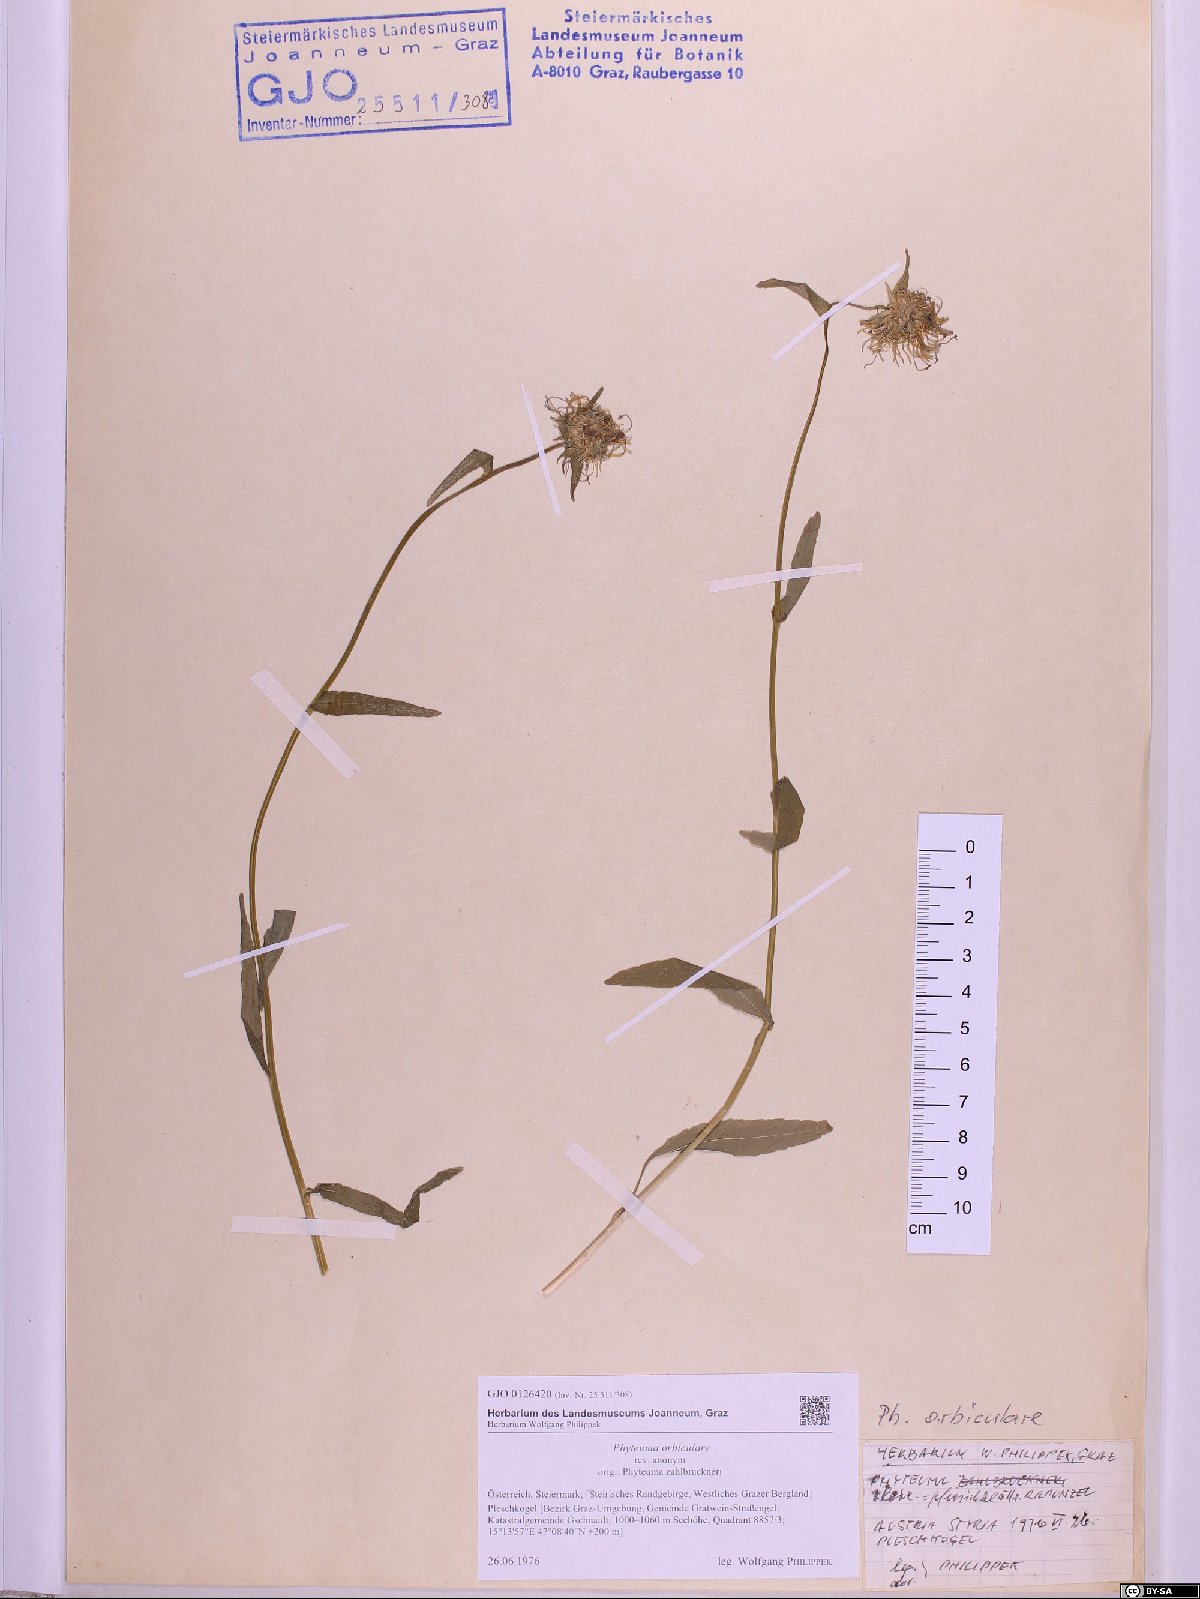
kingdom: Plantae
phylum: Tracheophyta
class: Magnoliopsida
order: Asterales
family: Campanulaceae
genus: Phyteuma
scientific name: Phyteuma orbiculare
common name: Round-headed rampion
